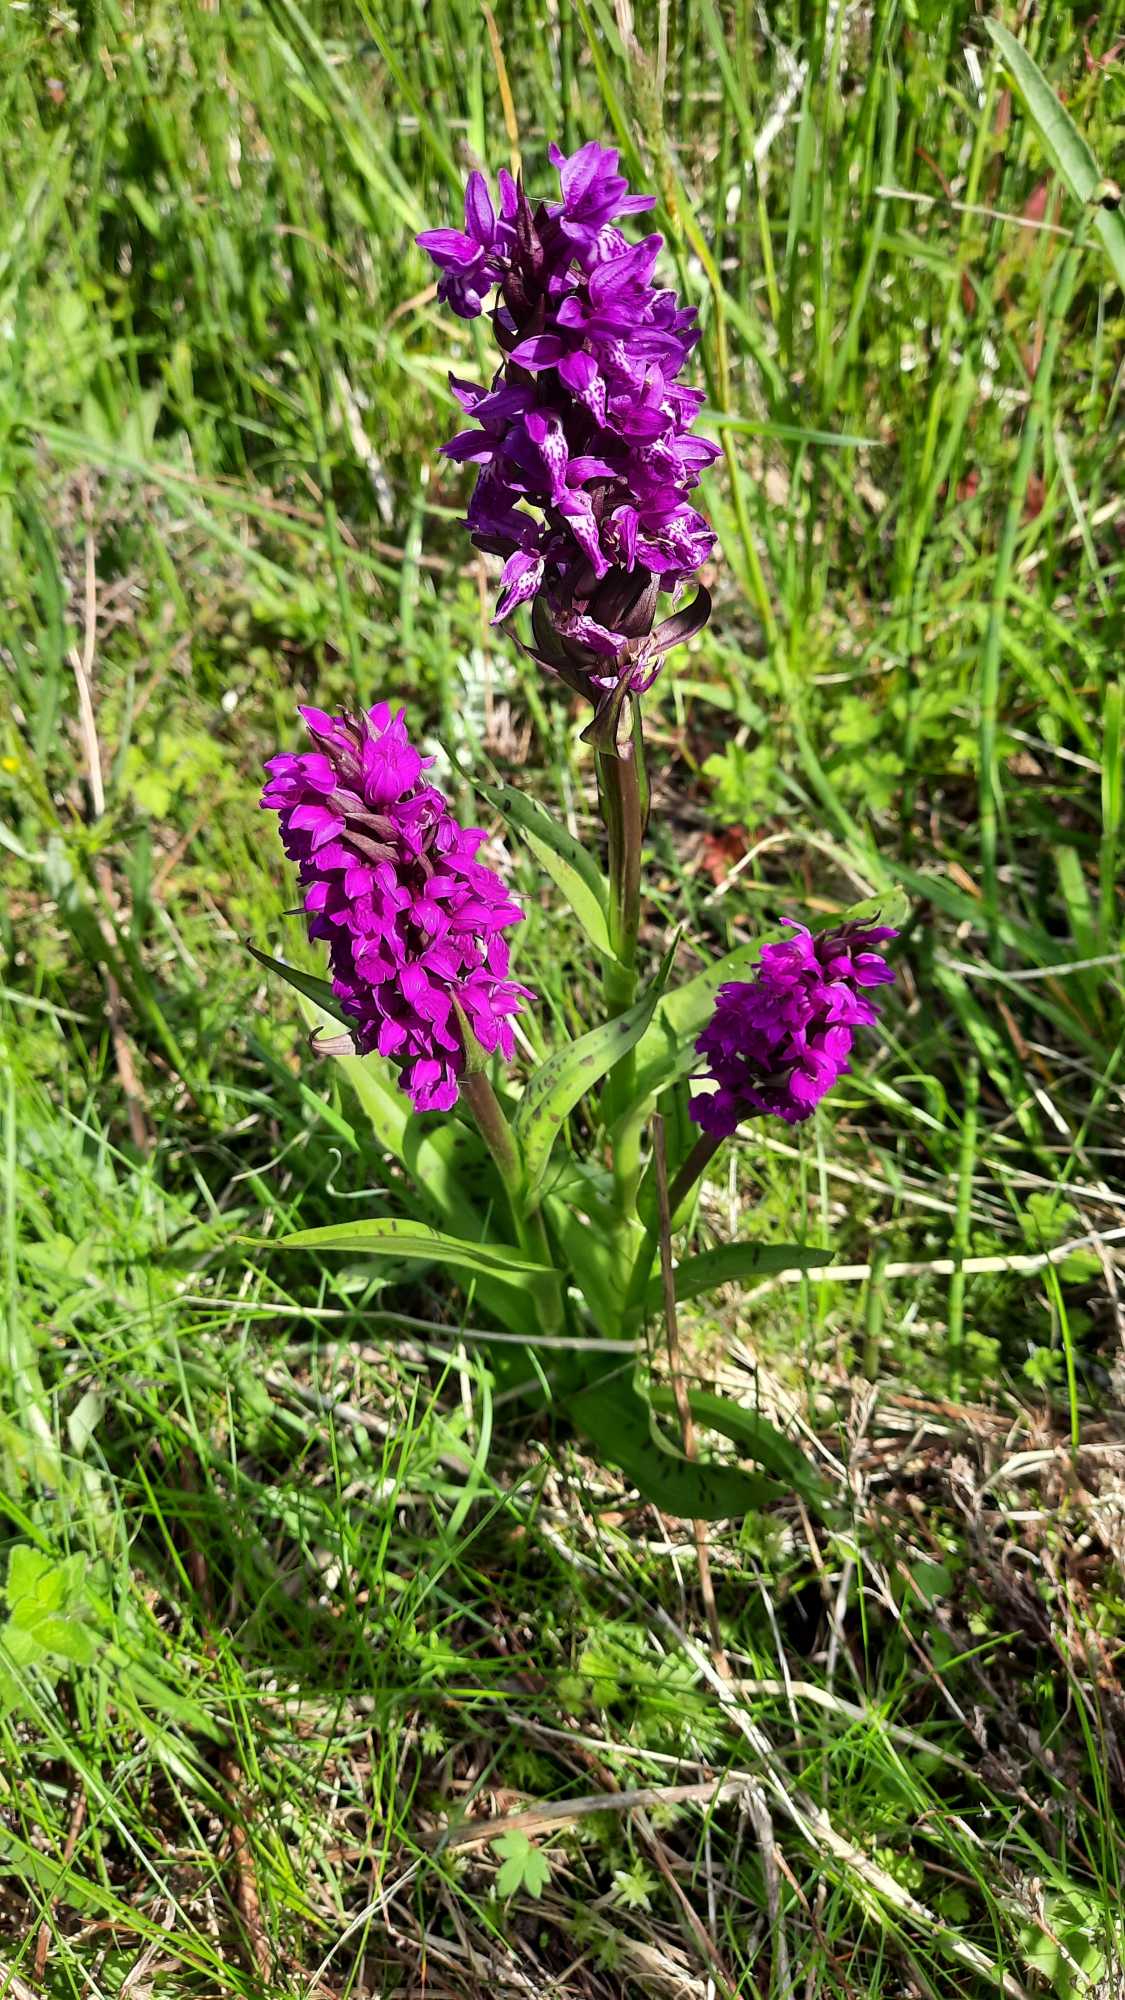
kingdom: Plantae
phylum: Tracheophyta
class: Liliopsida
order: Asparagales
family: Orchidaceae
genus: Dactylorhiza
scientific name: Dactylorhiza majalis
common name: Maj-gøgeurt
